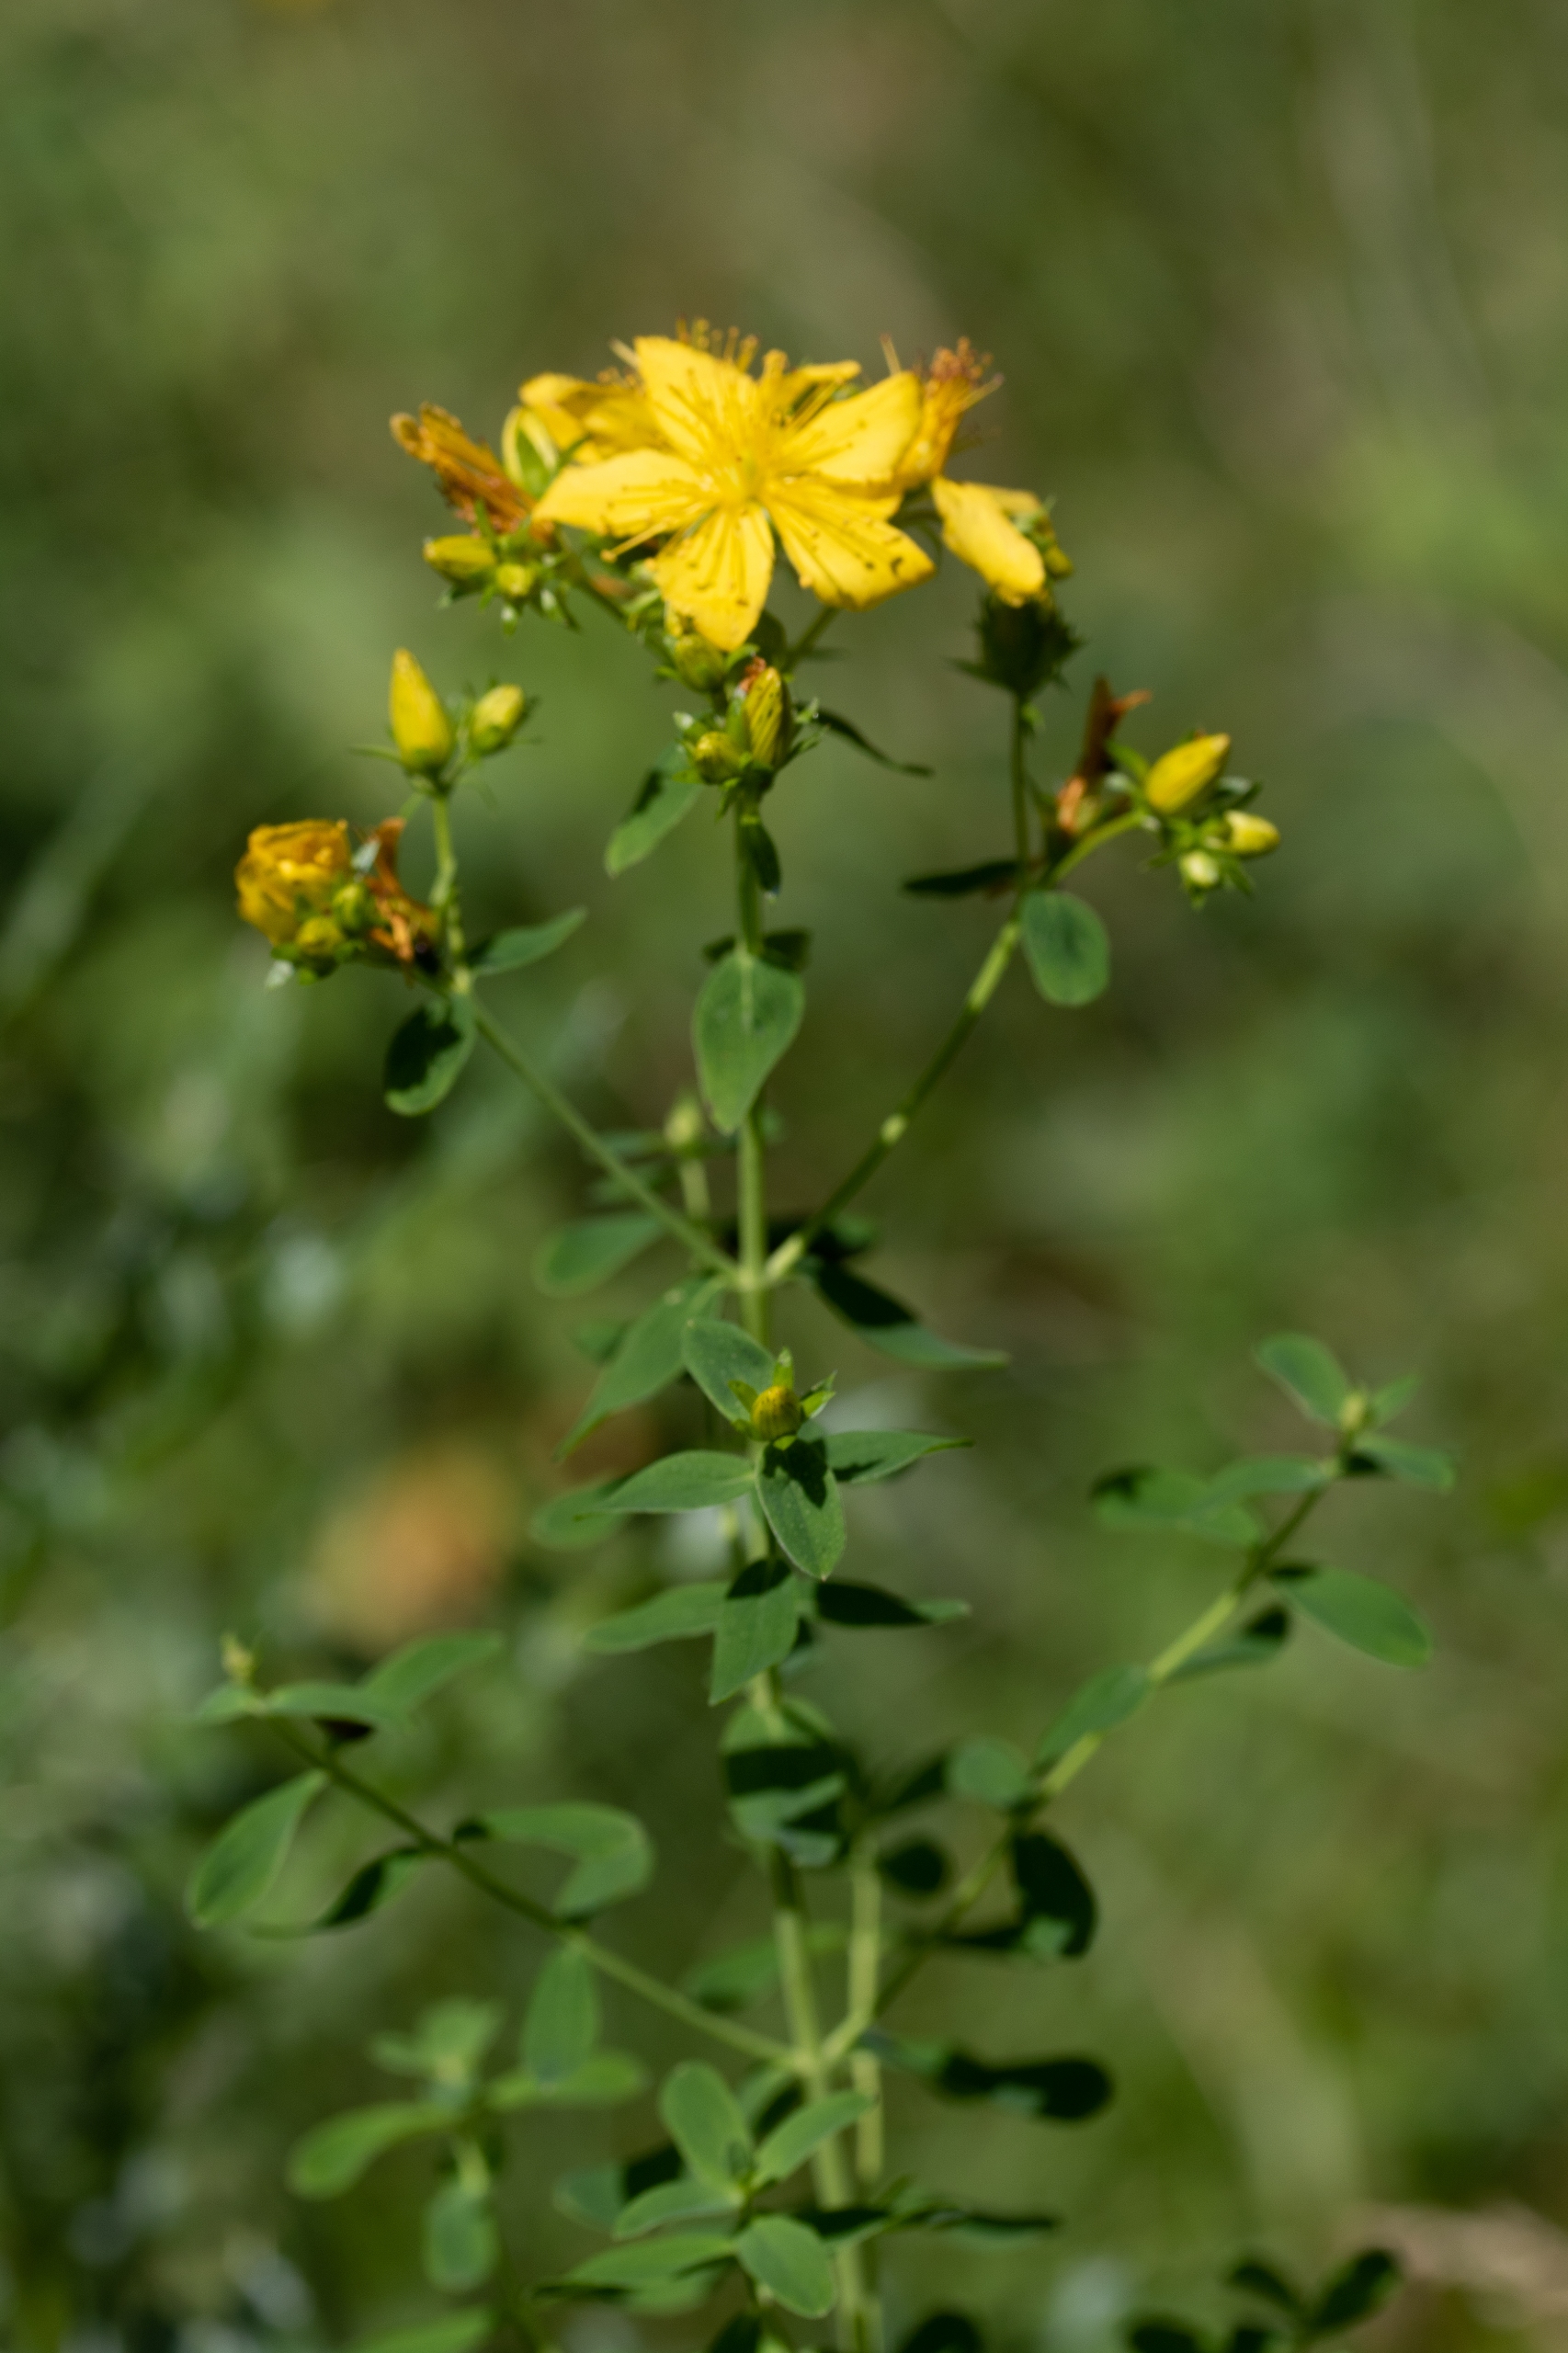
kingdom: Plantae
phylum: Tracheophyta
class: Magnoliopsida
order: Malpighiales
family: Hypericaceae
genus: Hypericum
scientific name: Hypericum perforatum
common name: Prikbladet perikon
